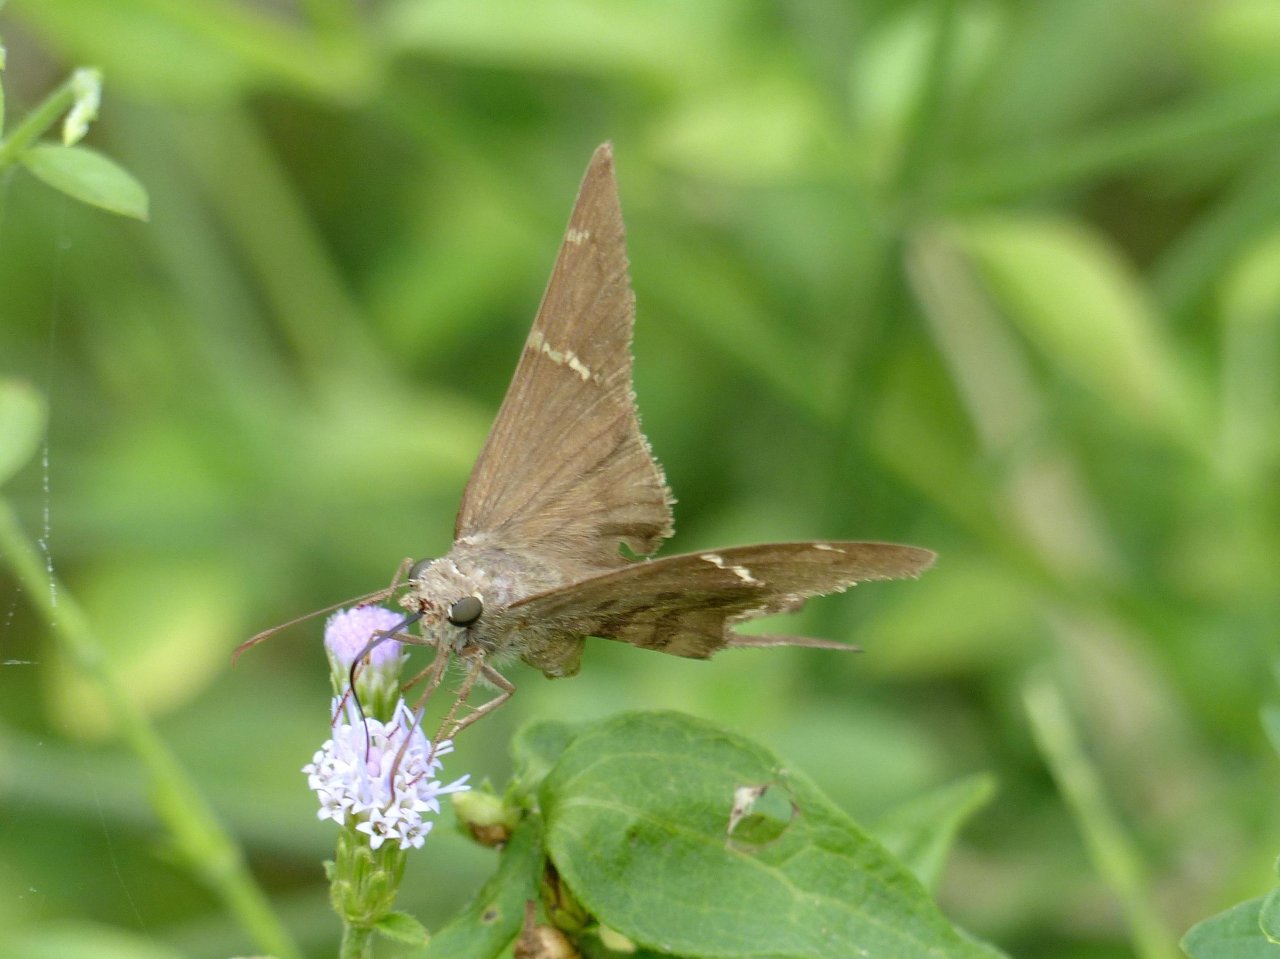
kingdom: Animalia
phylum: Arthropoda
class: Insecta
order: Lepidoptera
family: Hesperiidae
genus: Urbanus
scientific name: Urbanus procne
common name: Brown Longtail
